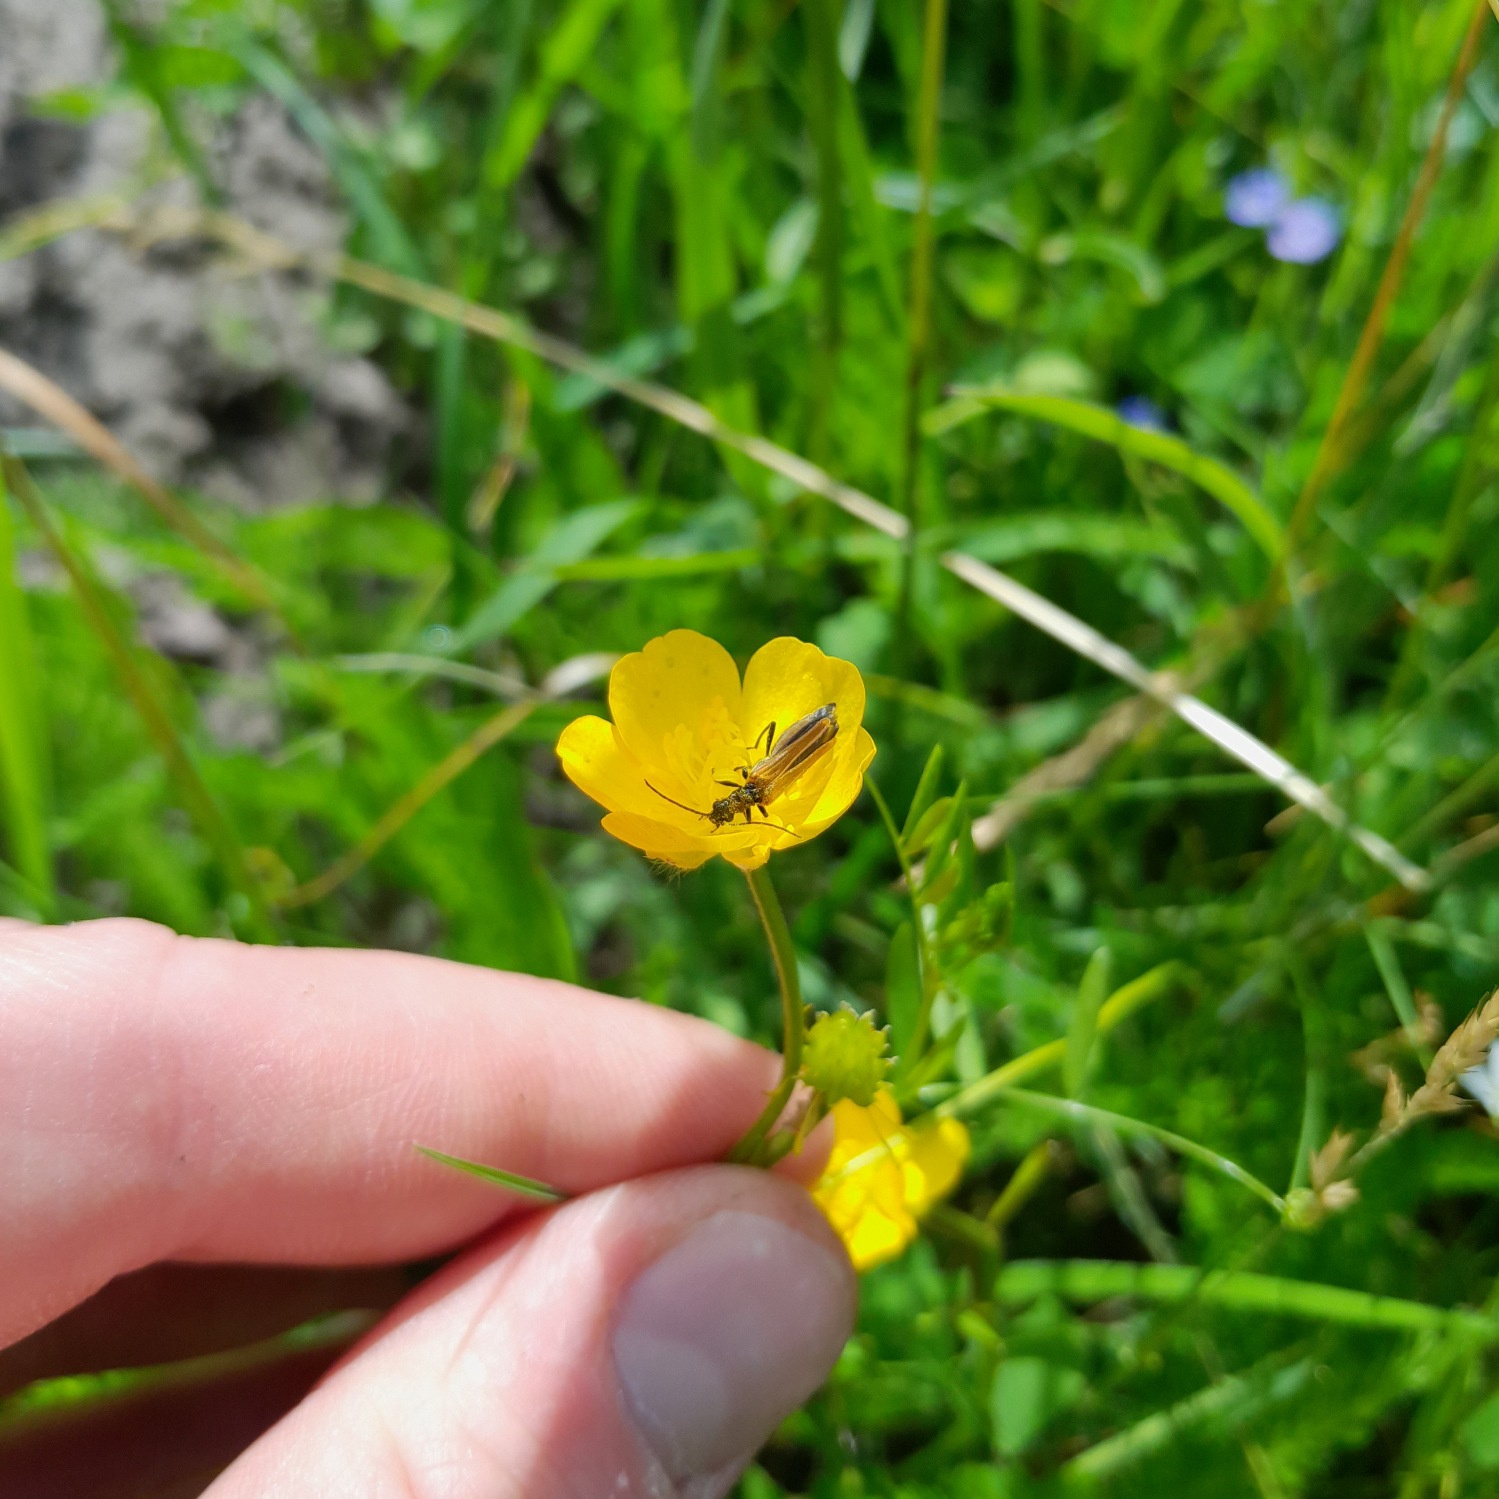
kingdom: Animalia
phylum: Arthropoda
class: Insecta
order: Coleoptera
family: Oedemeridae
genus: Oedemera
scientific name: Oedemera femorata
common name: Gulvinget solbille
